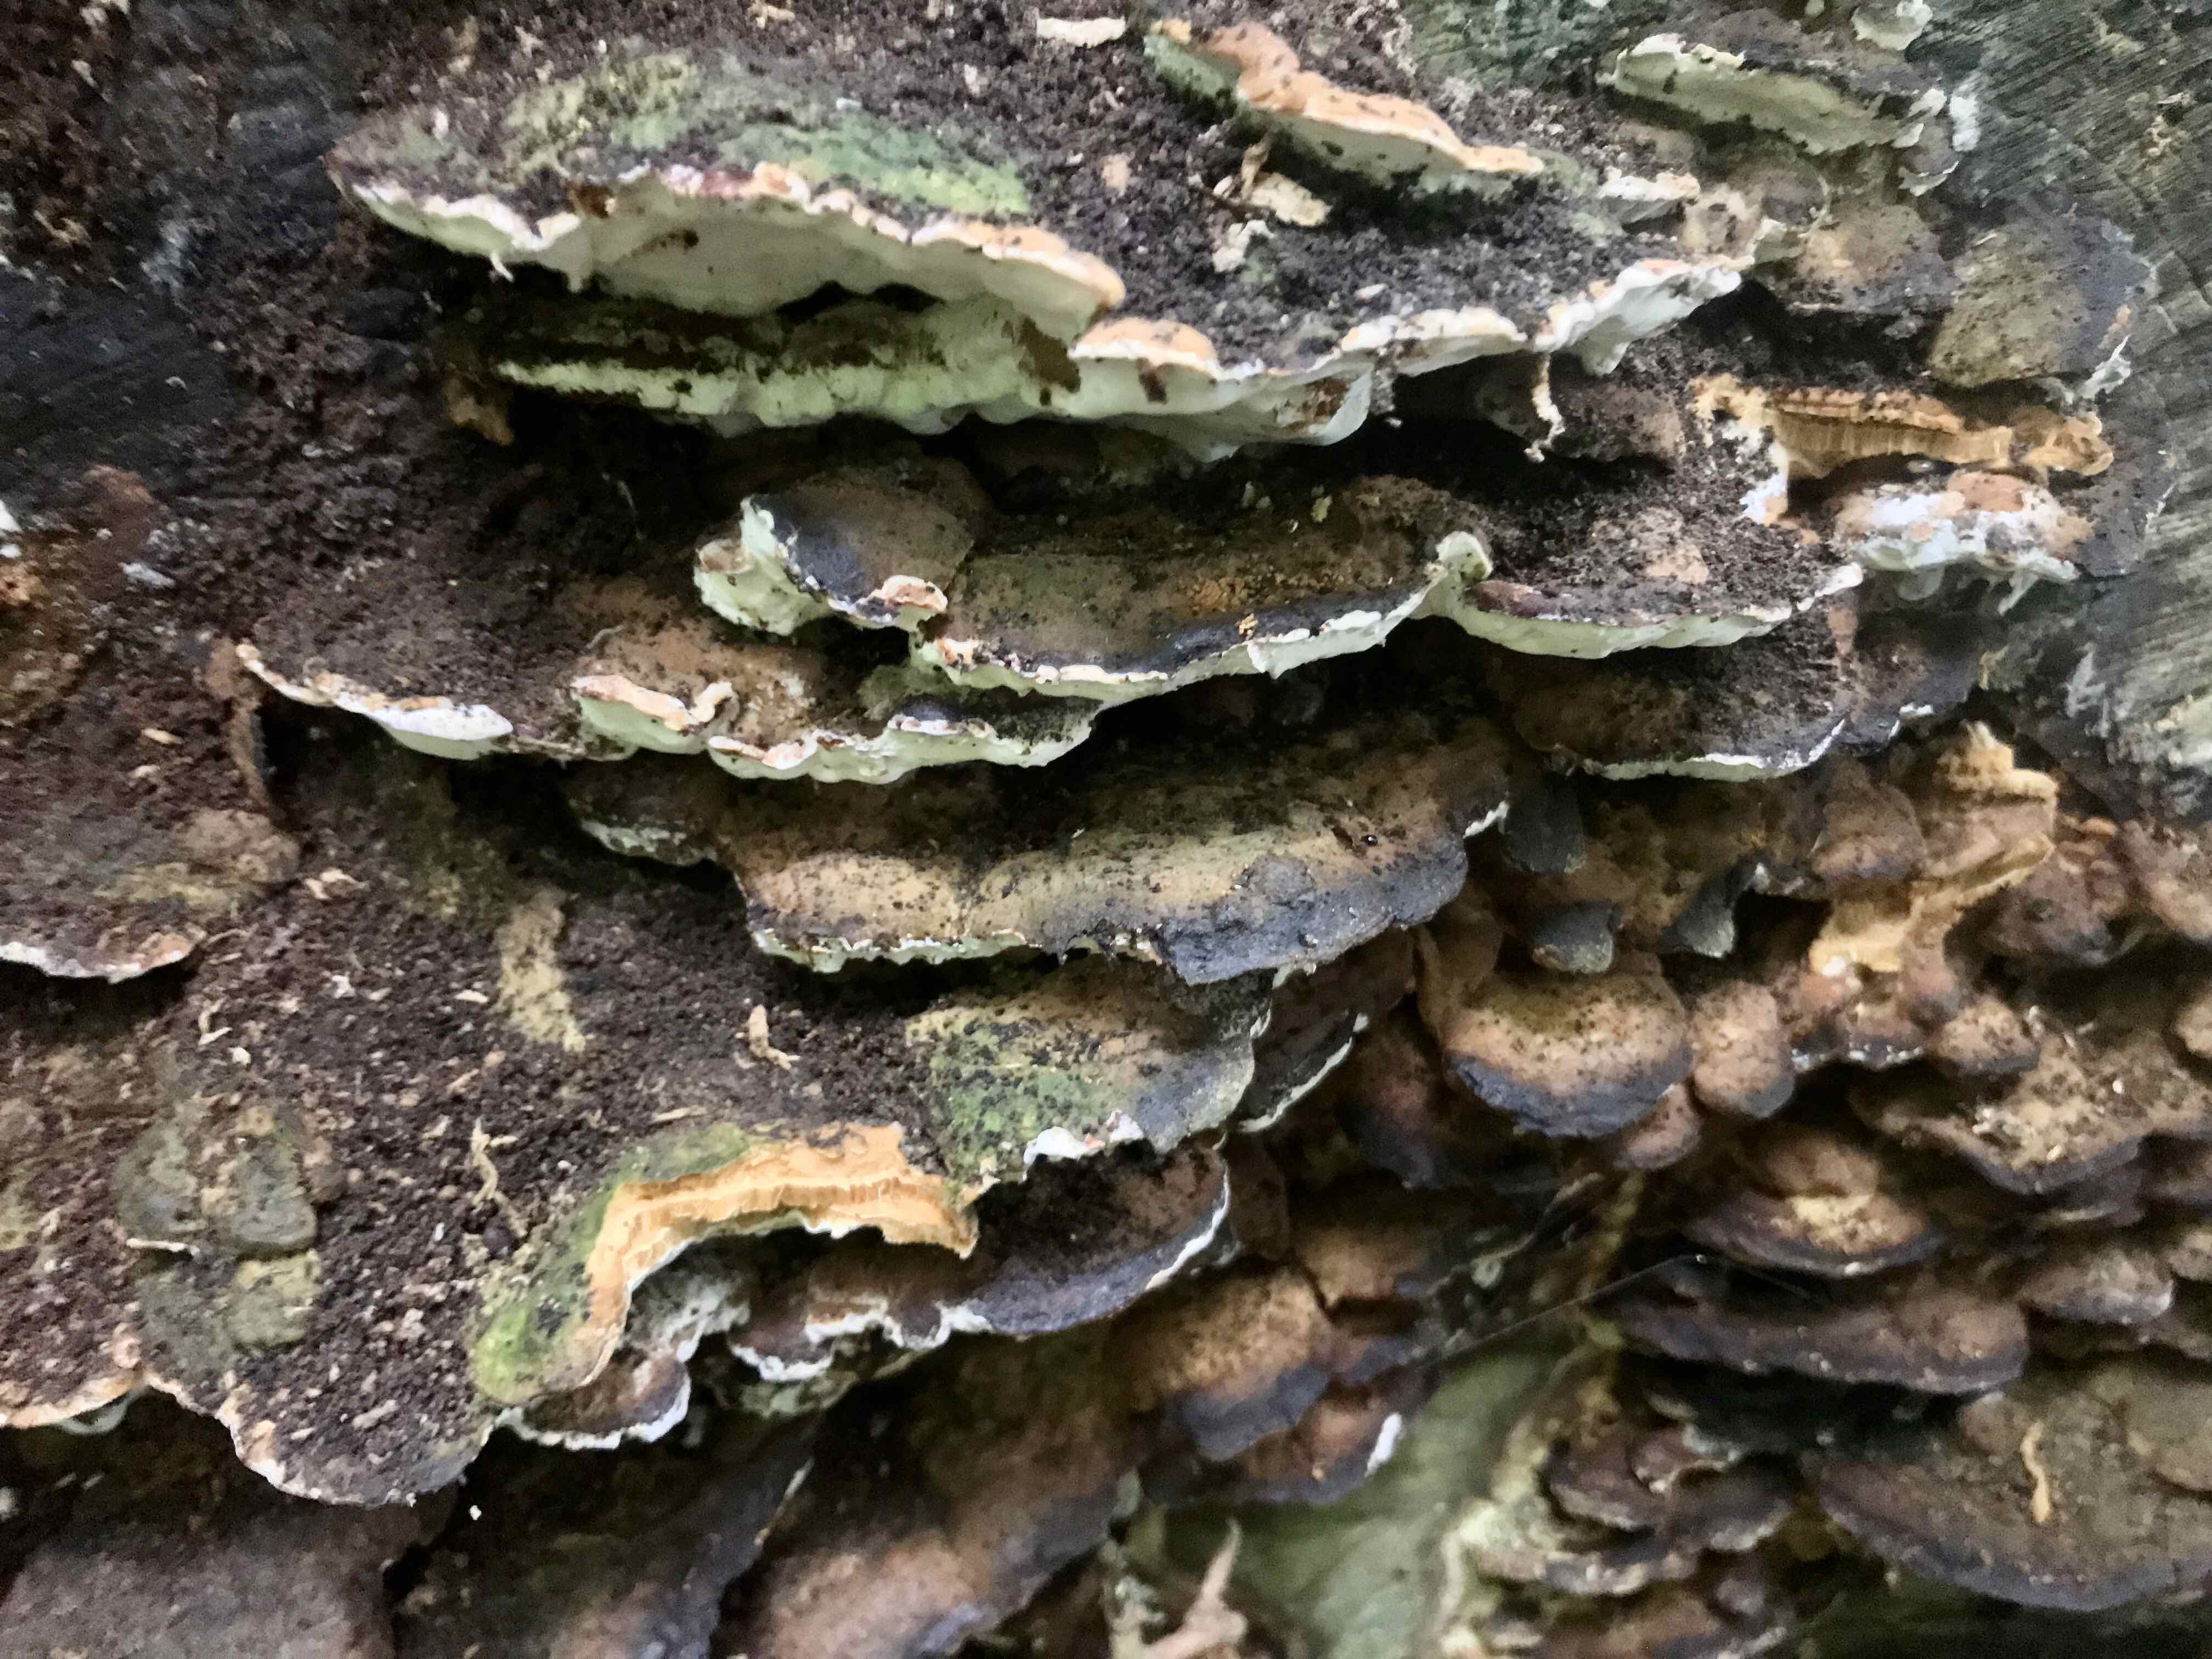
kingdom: Fungi
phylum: Basidiomycota
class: Agaricomycetes
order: Hymenochaetales
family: Oxyporaceae
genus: Oxyporus
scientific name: Oxyporus populinus
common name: sammenvokset trylleporesvamp
